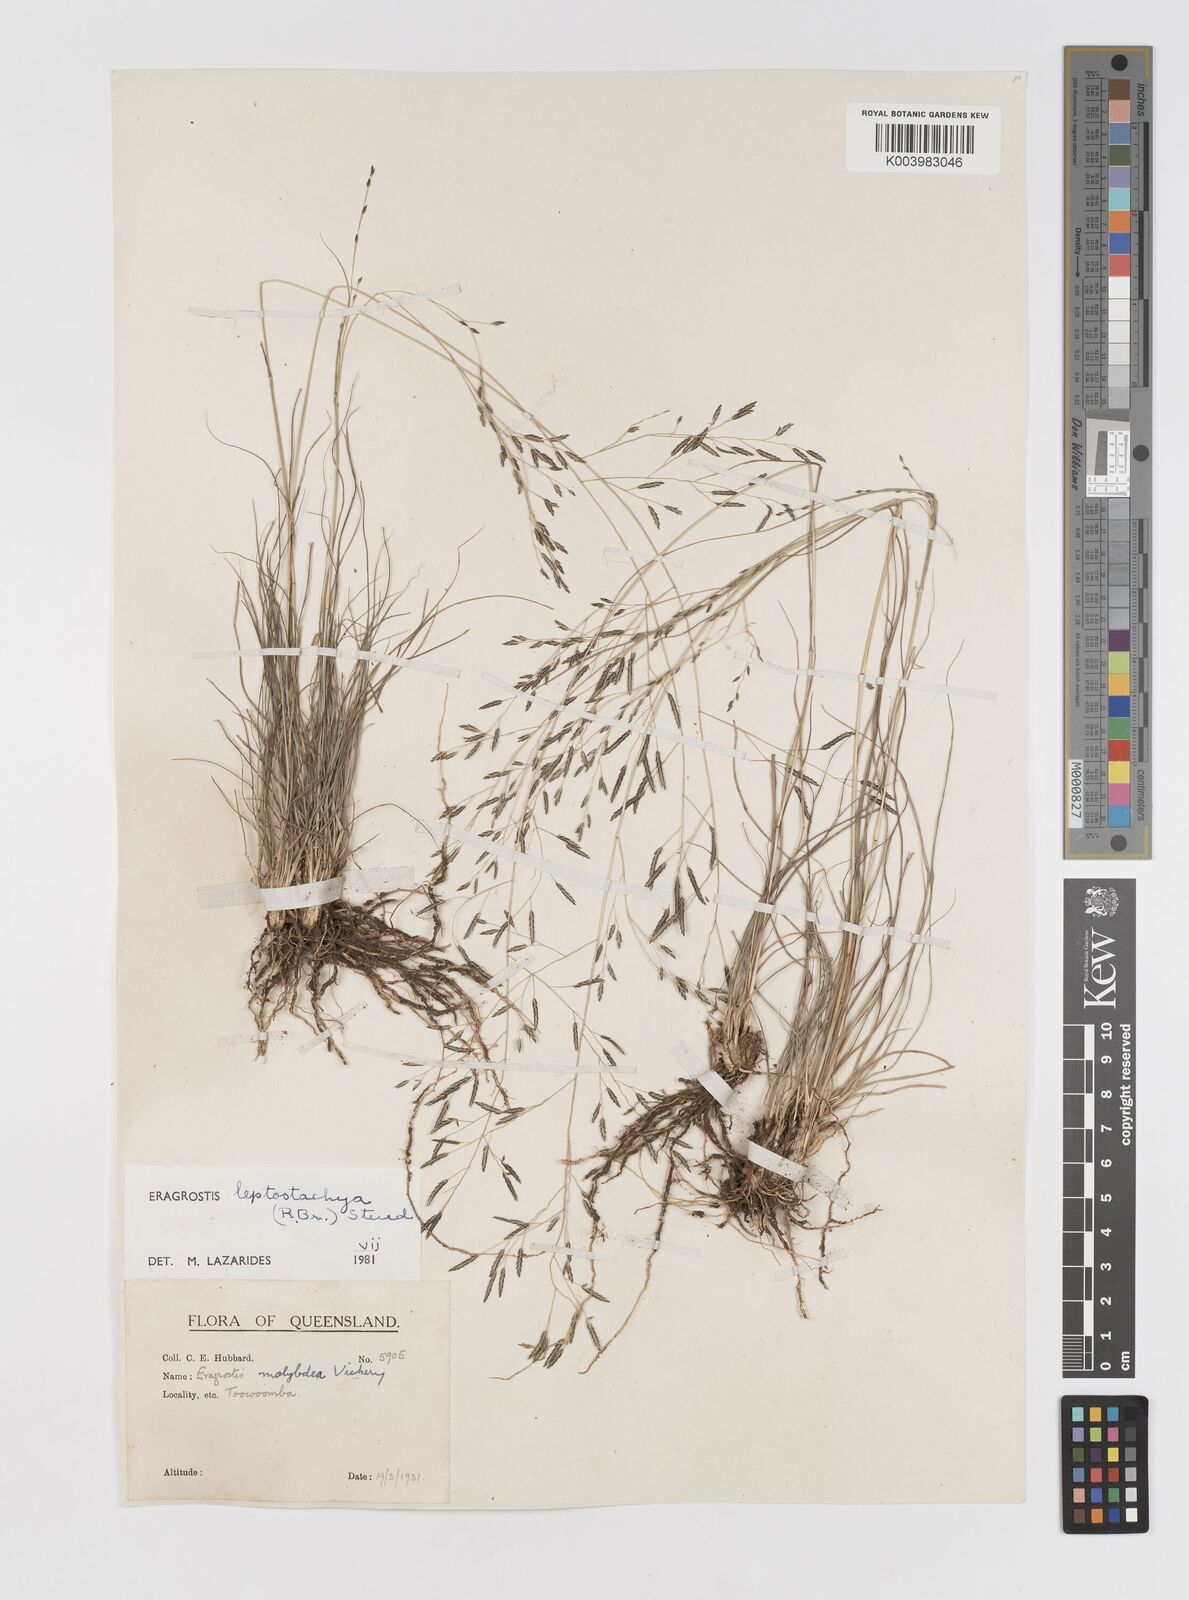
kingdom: Plantae
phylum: Tracheophyta
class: Liliopsida
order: Poales
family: Poaceae
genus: Eragrostis
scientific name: Eragrostis leptostachya
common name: Australian lovegrass
